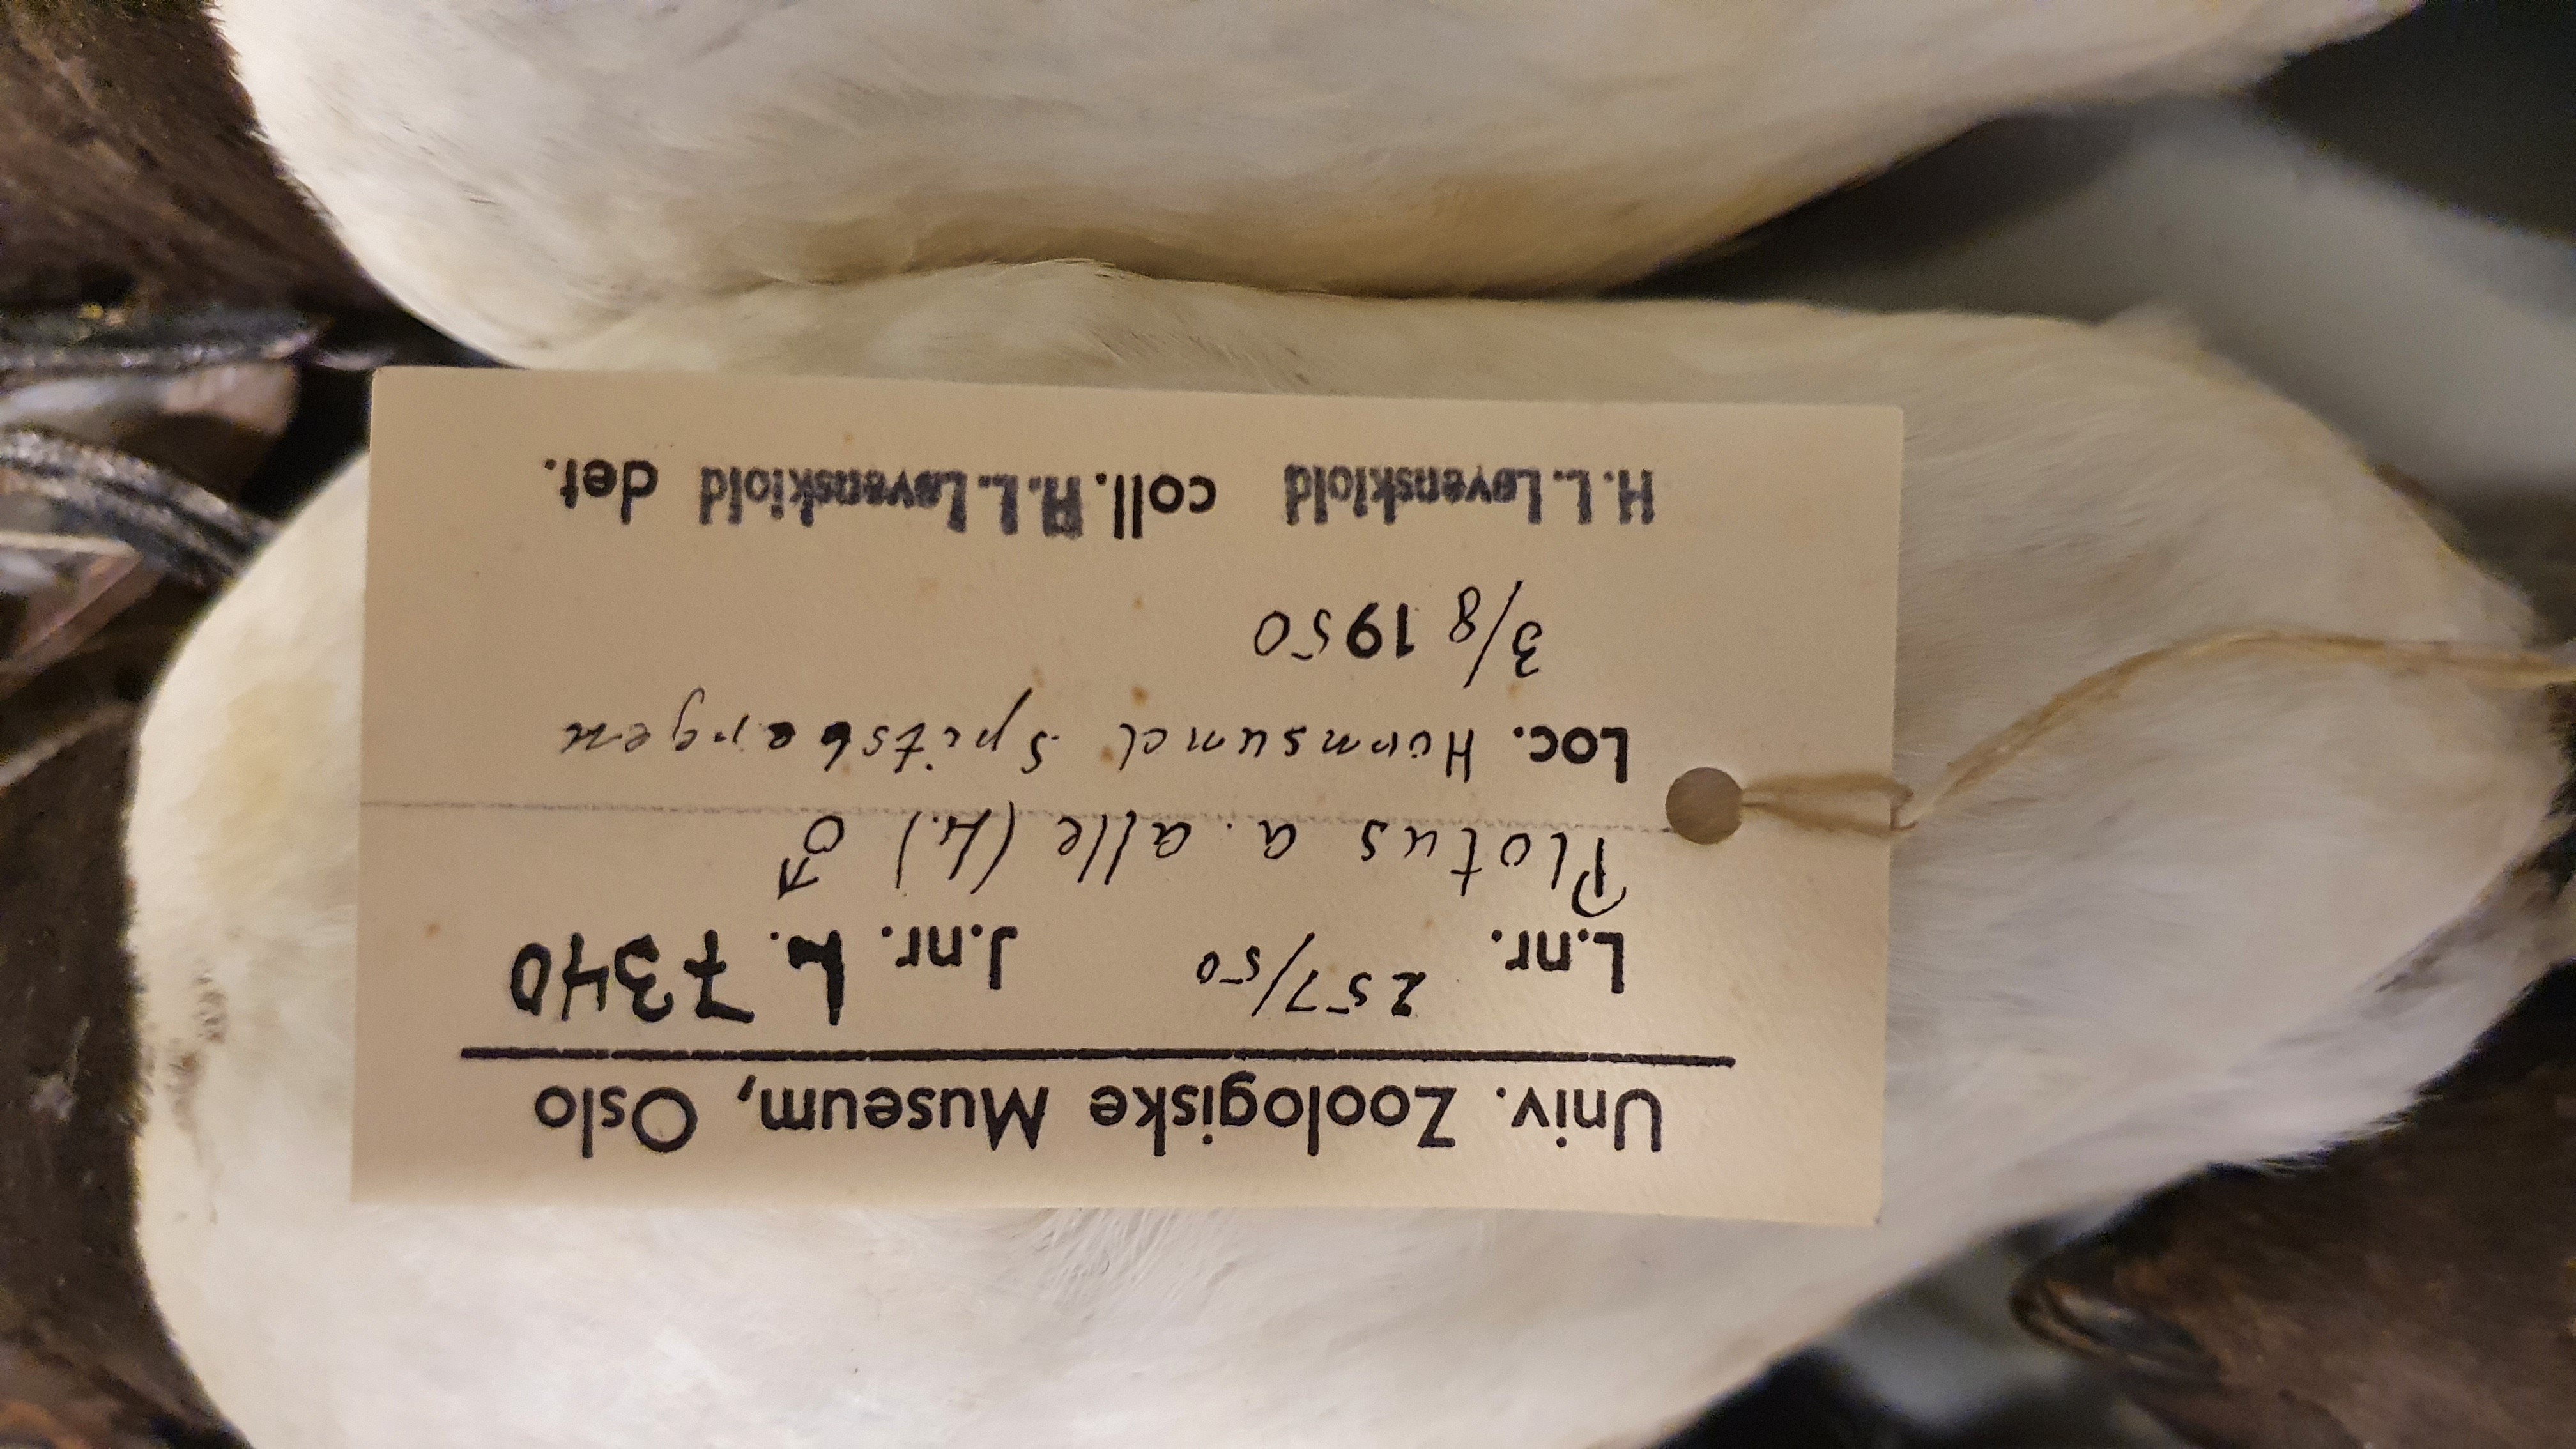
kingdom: Animalia
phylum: Chordata
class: Aves
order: Charadriiformes
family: Alcidae
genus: Alle
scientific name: Alle alle
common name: Little auk
